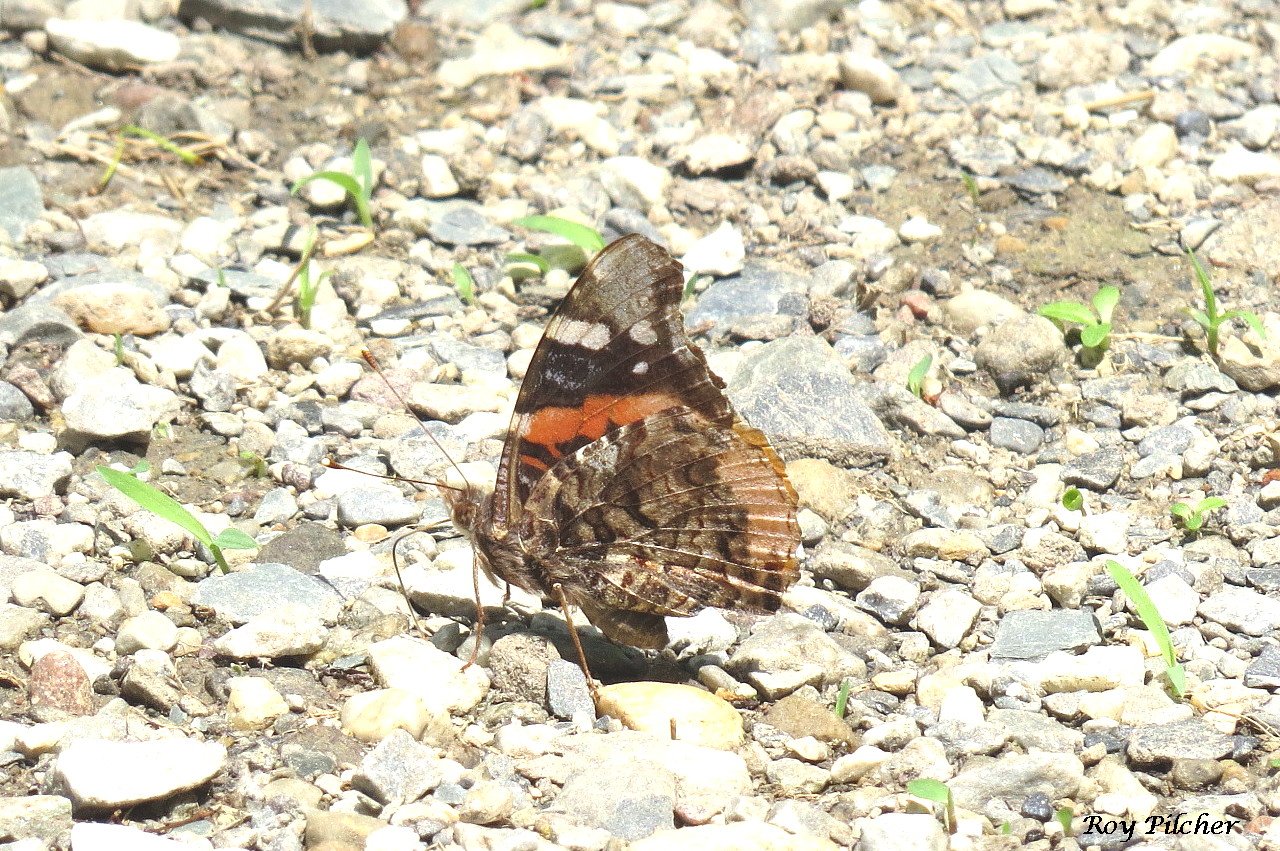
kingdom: Animalia
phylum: Arthropoda
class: Insecta
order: Lepidoptera
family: Nymphalidae
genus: Vanessa
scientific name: Vanessa atalanta
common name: Red Admiral
